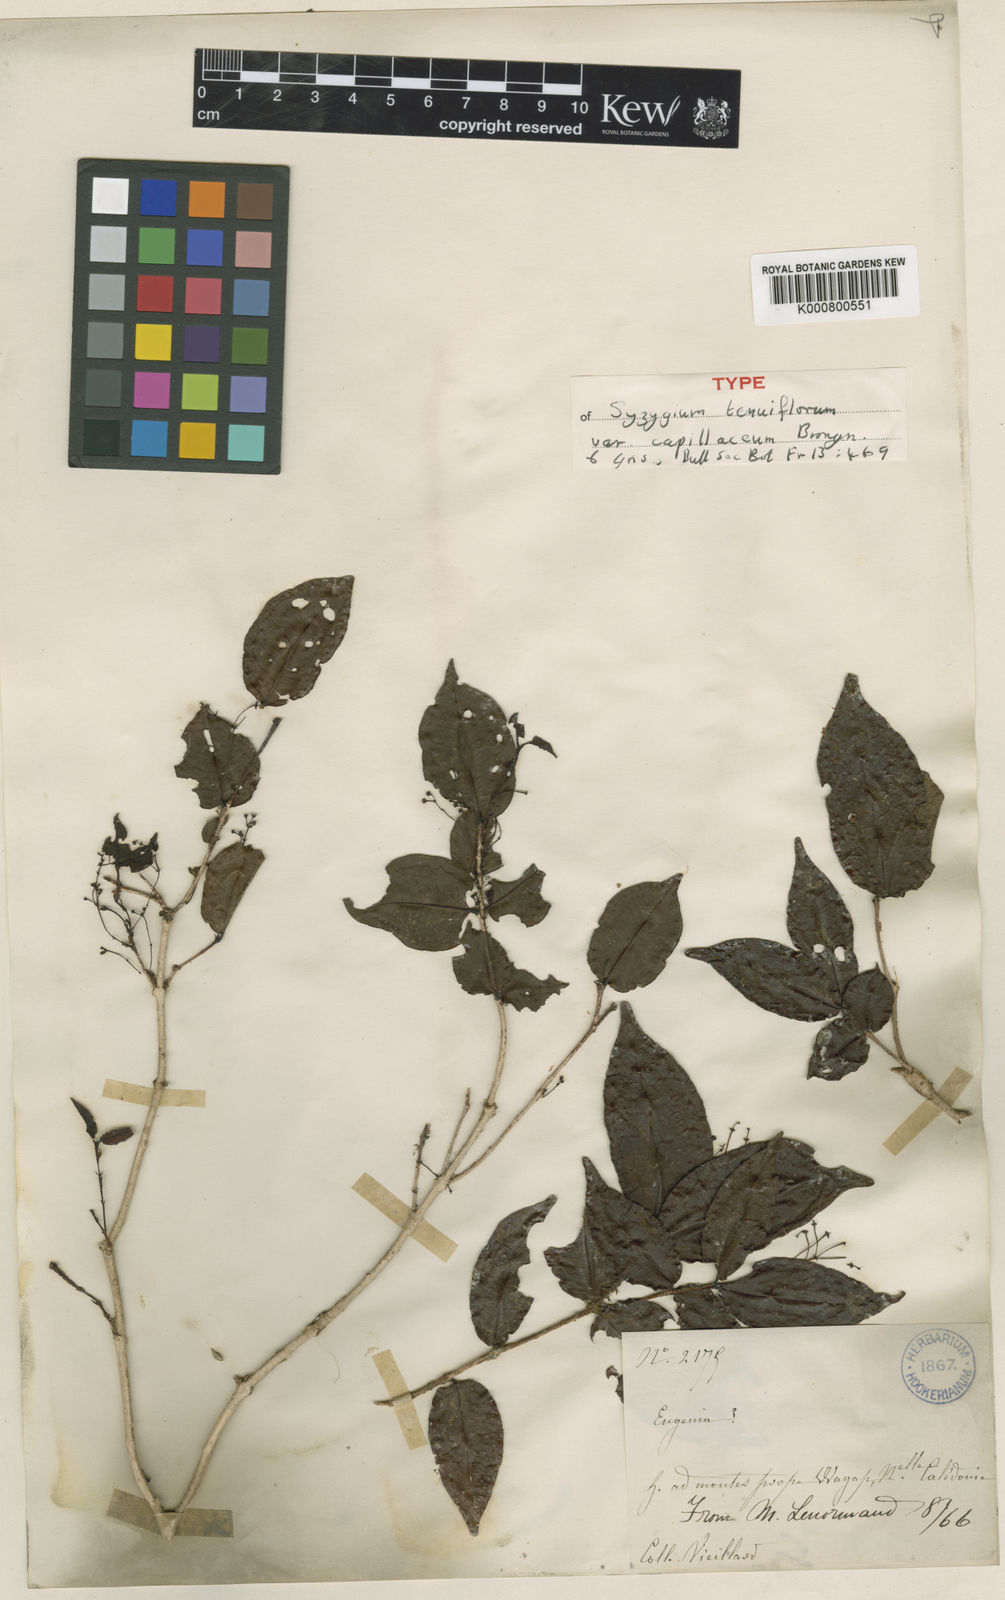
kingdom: Plantae
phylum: Tracheophyta
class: Magnoliopsida
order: Myrtales
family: Myrtaceae
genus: Syzygium
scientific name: Syzygium tenuiflorum
